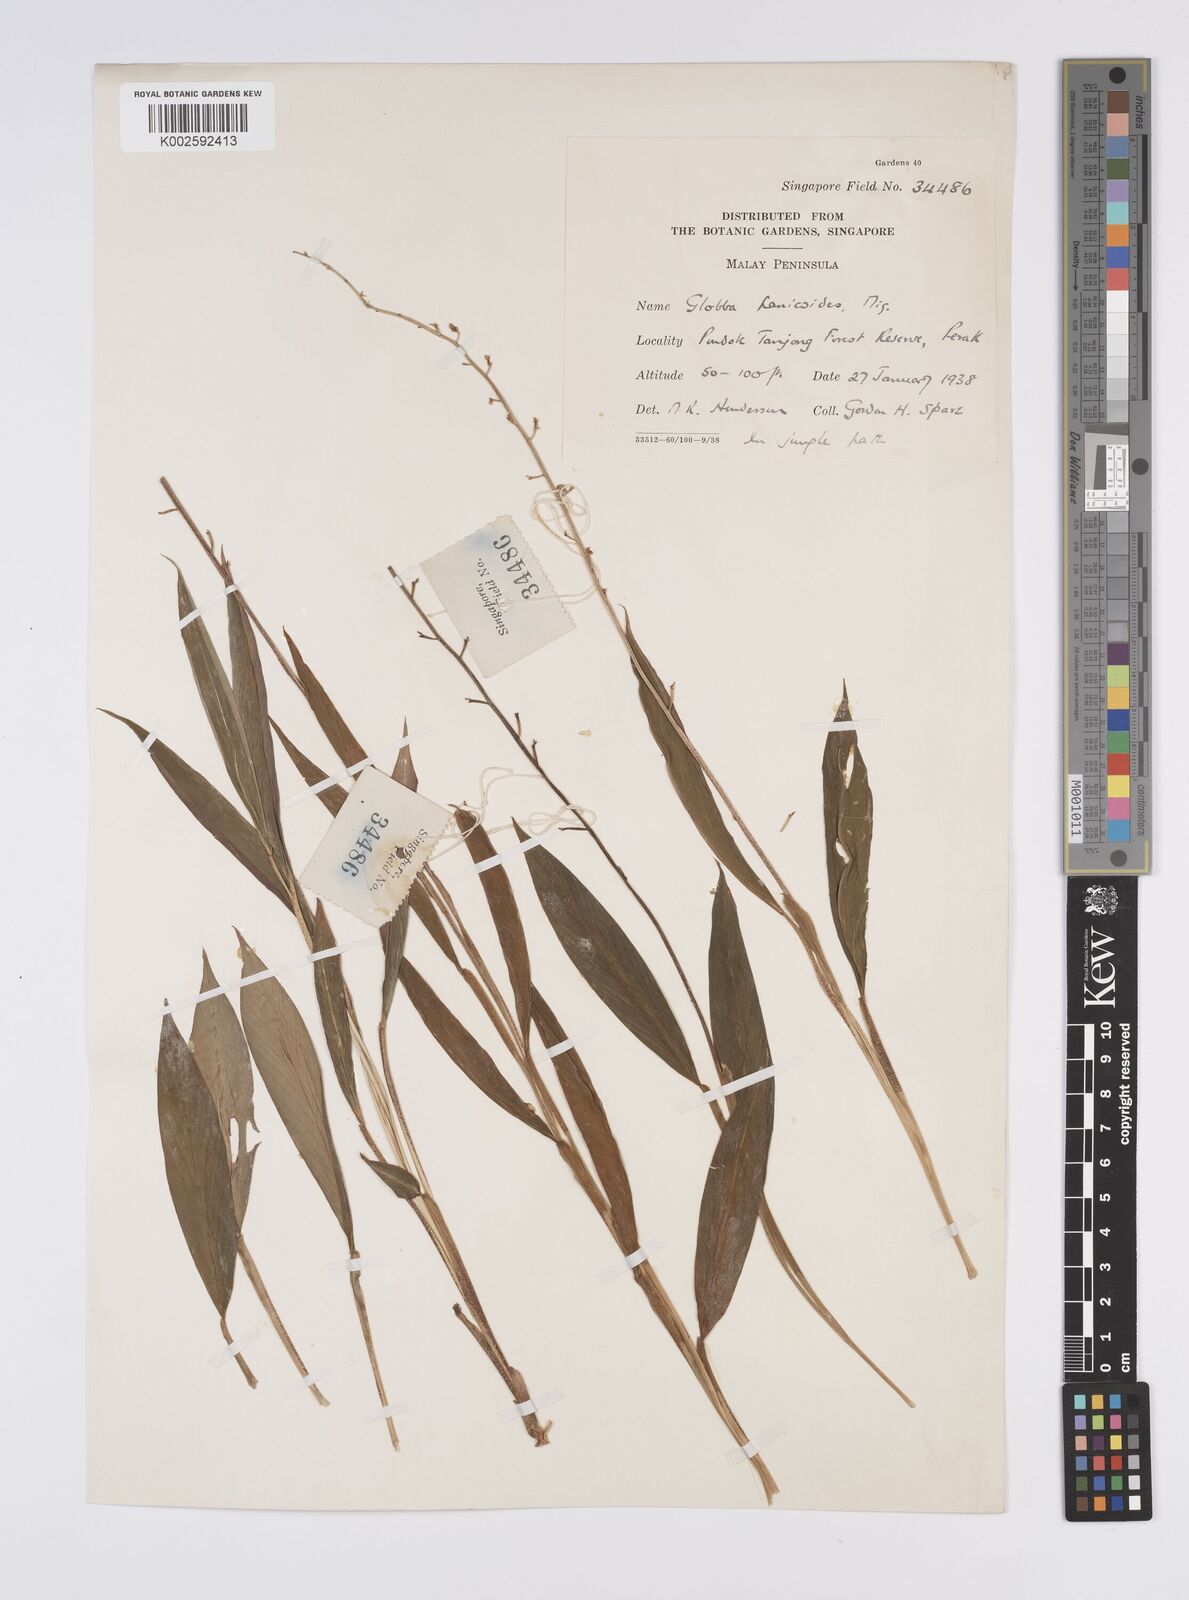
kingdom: Plantae
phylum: Tracheophyta
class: Liliopsida
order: Zingiberales
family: Zingiberaceae
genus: Globba
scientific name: Globba pendula
